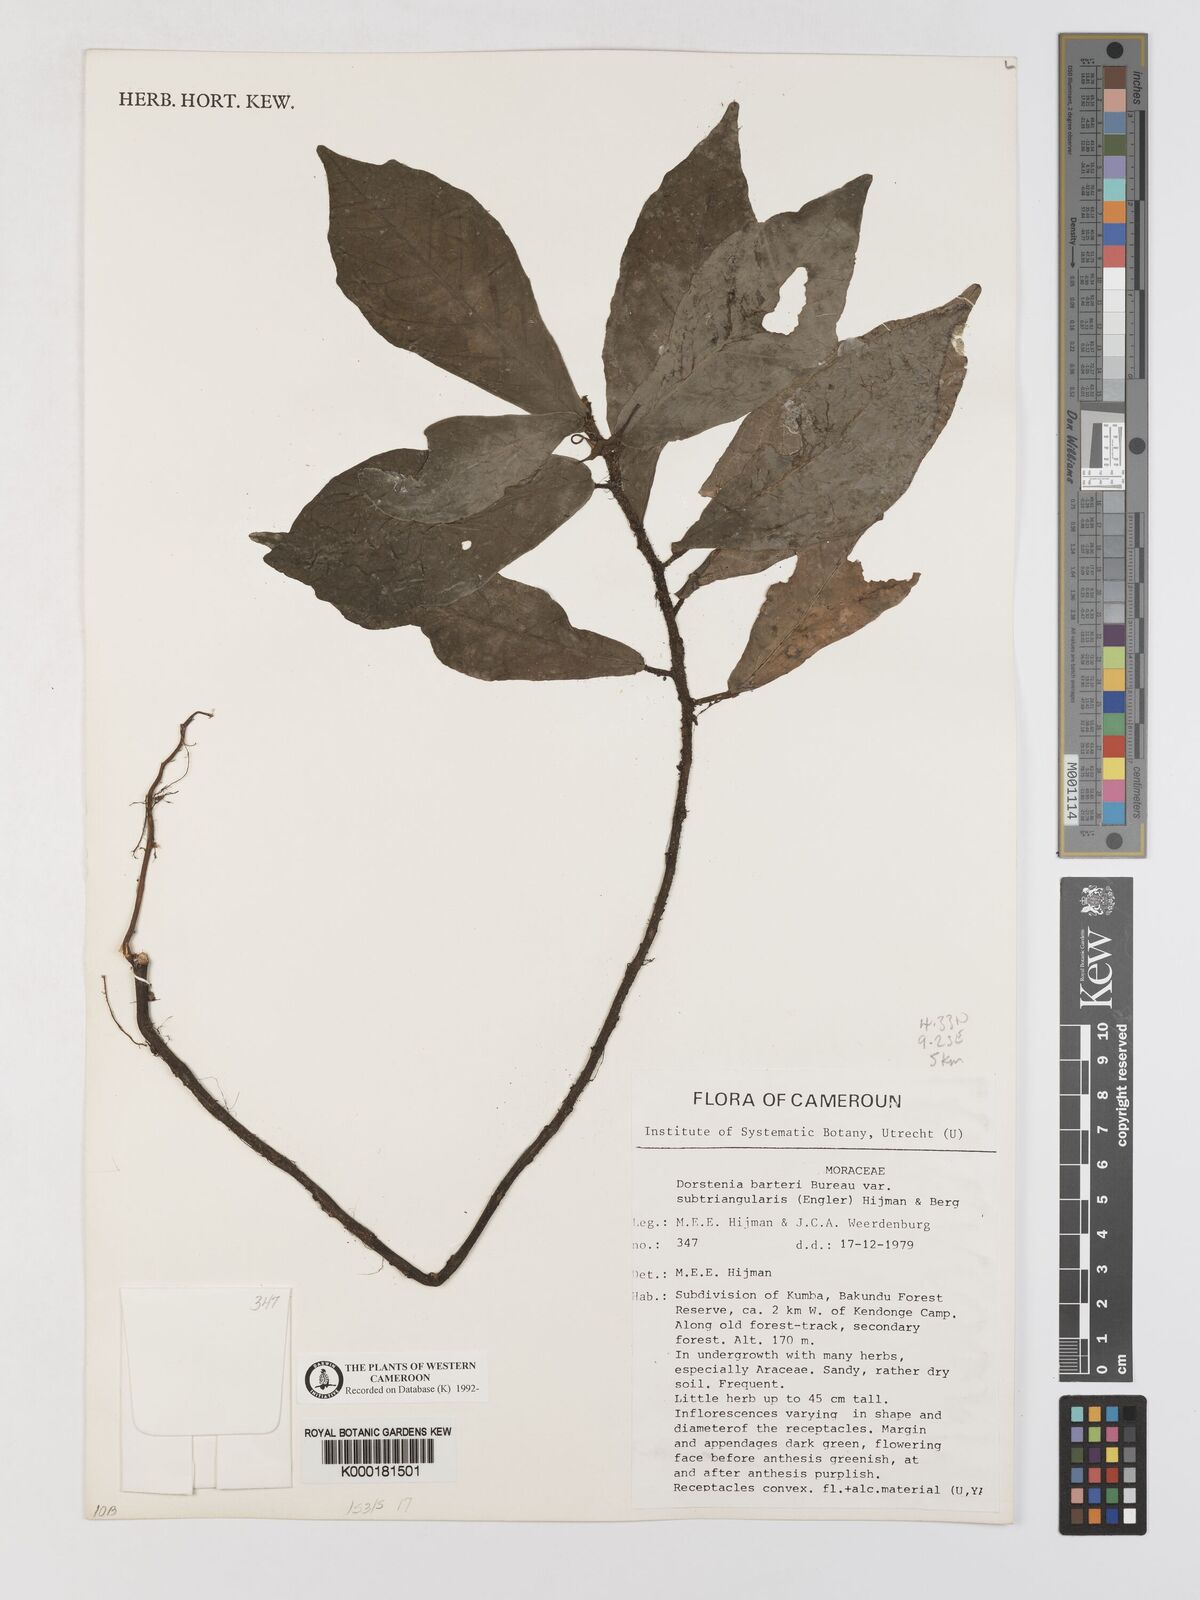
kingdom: Plantae
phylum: Tracheophyta
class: Magnoliopsida
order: Rosales
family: Moraceae
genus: Dorstenia
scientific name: Dorstenia barteri
